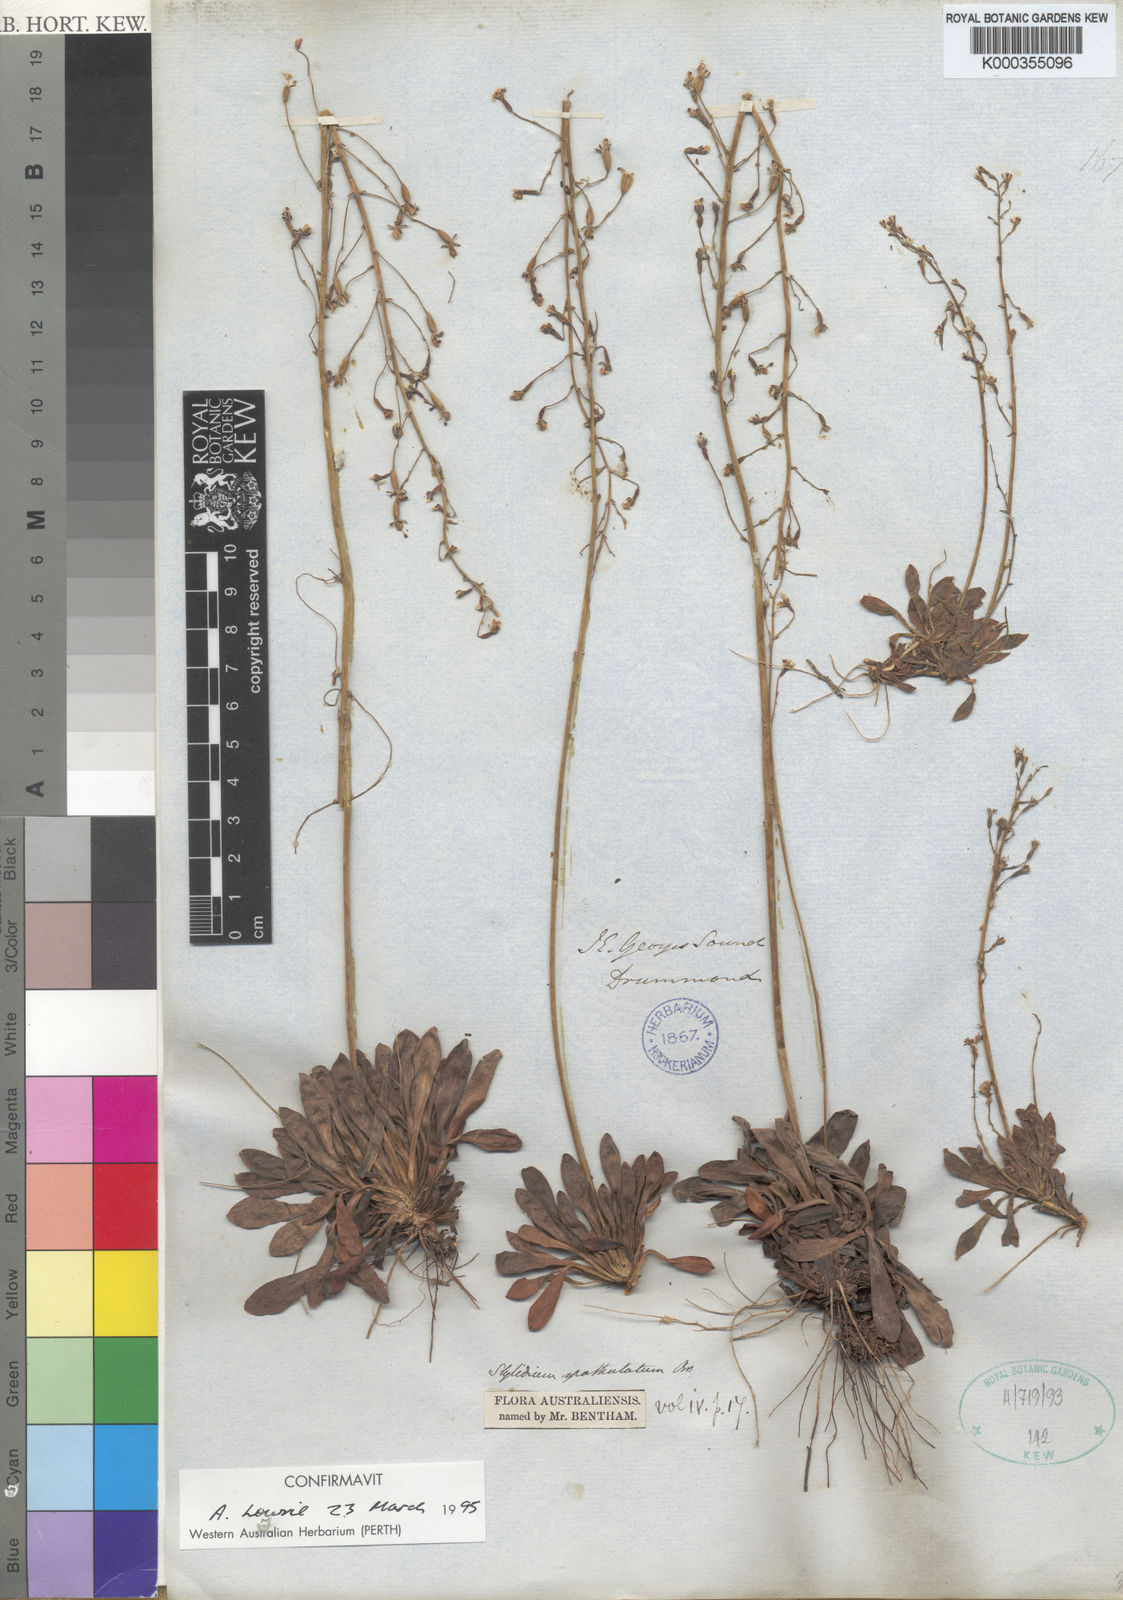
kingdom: Plantae
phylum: Tracheophyta
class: Magnoliopsida
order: Asterales
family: Stylidiaceae
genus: Stylidium
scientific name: Stylidium spathulatum
